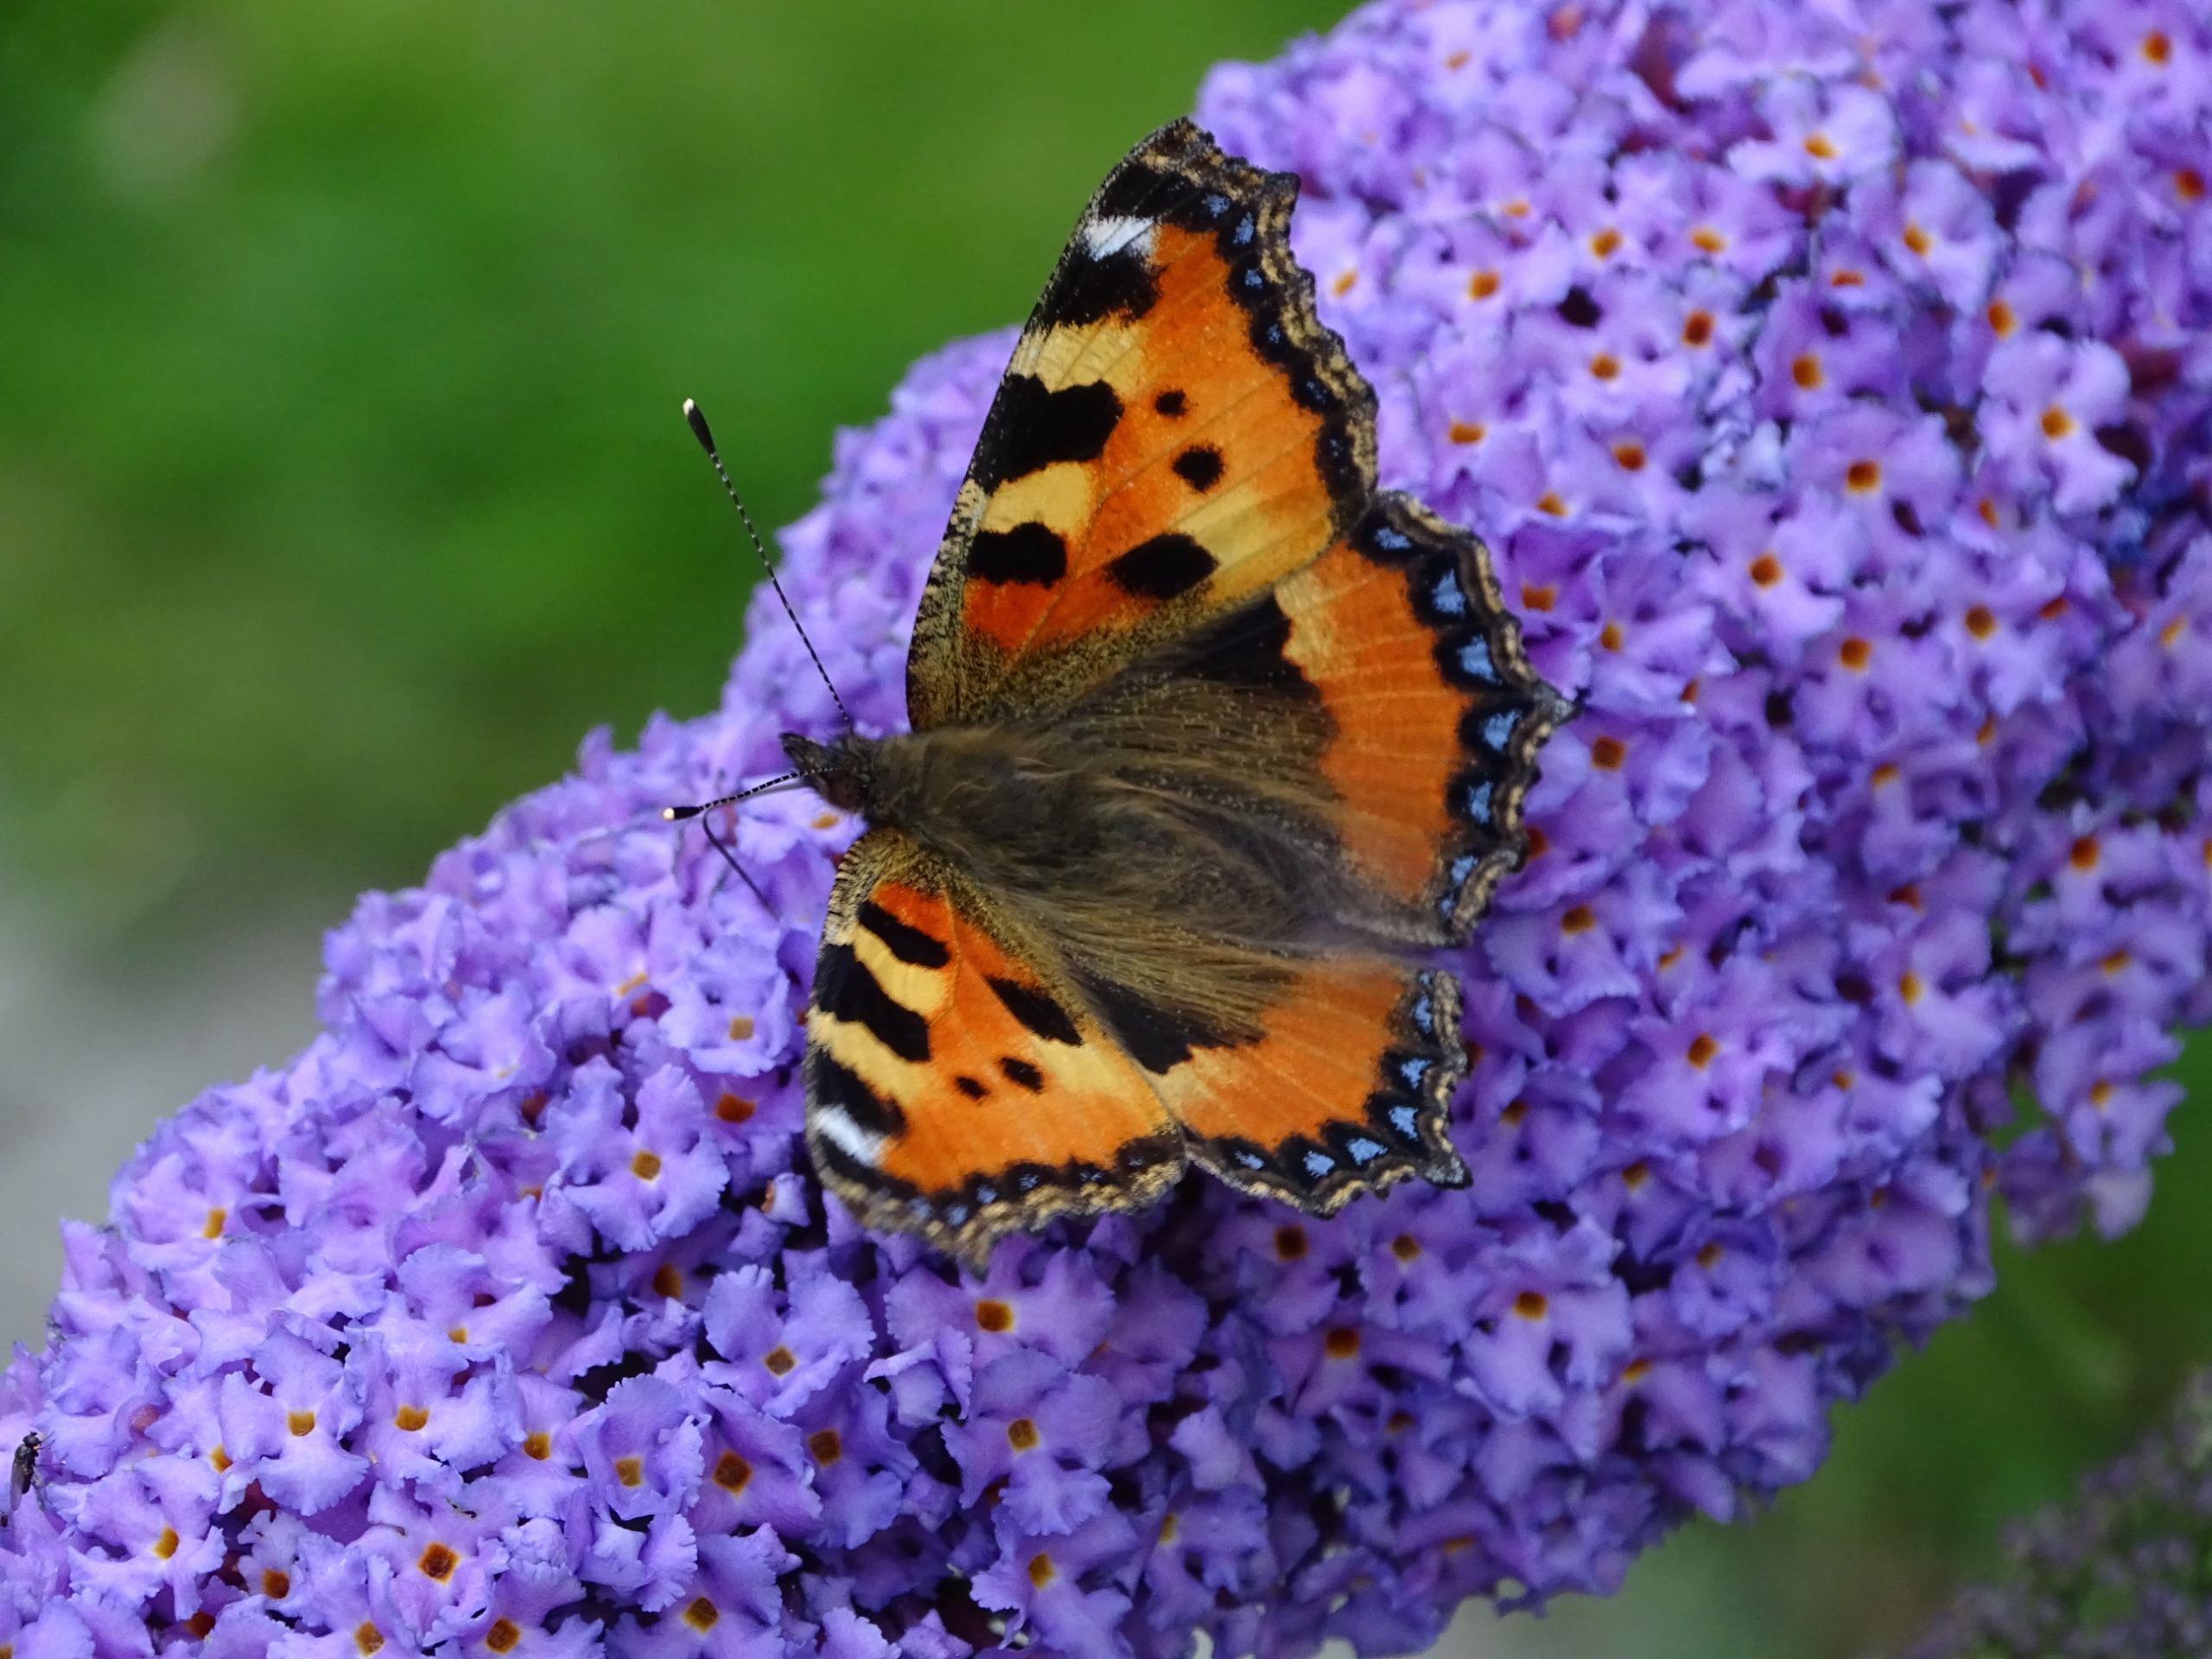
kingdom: Animalia
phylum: Arthropoda
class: Insecta
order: Lepidoptera
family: Nymphalidae
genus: Aglais
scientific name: Aglais urticae
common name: Nældens takvinge
